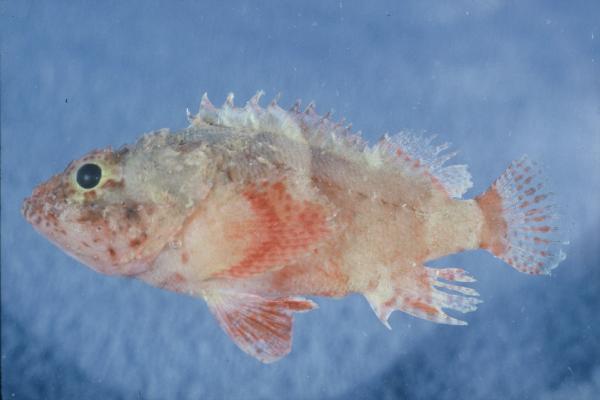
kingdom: Animalia
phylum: Chordata
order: Scorpaeniformes
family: Scorpaenidae
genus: Scorpaenodes
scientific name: Scorpaenodes parvipinnis
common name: Coral scorpionfish
